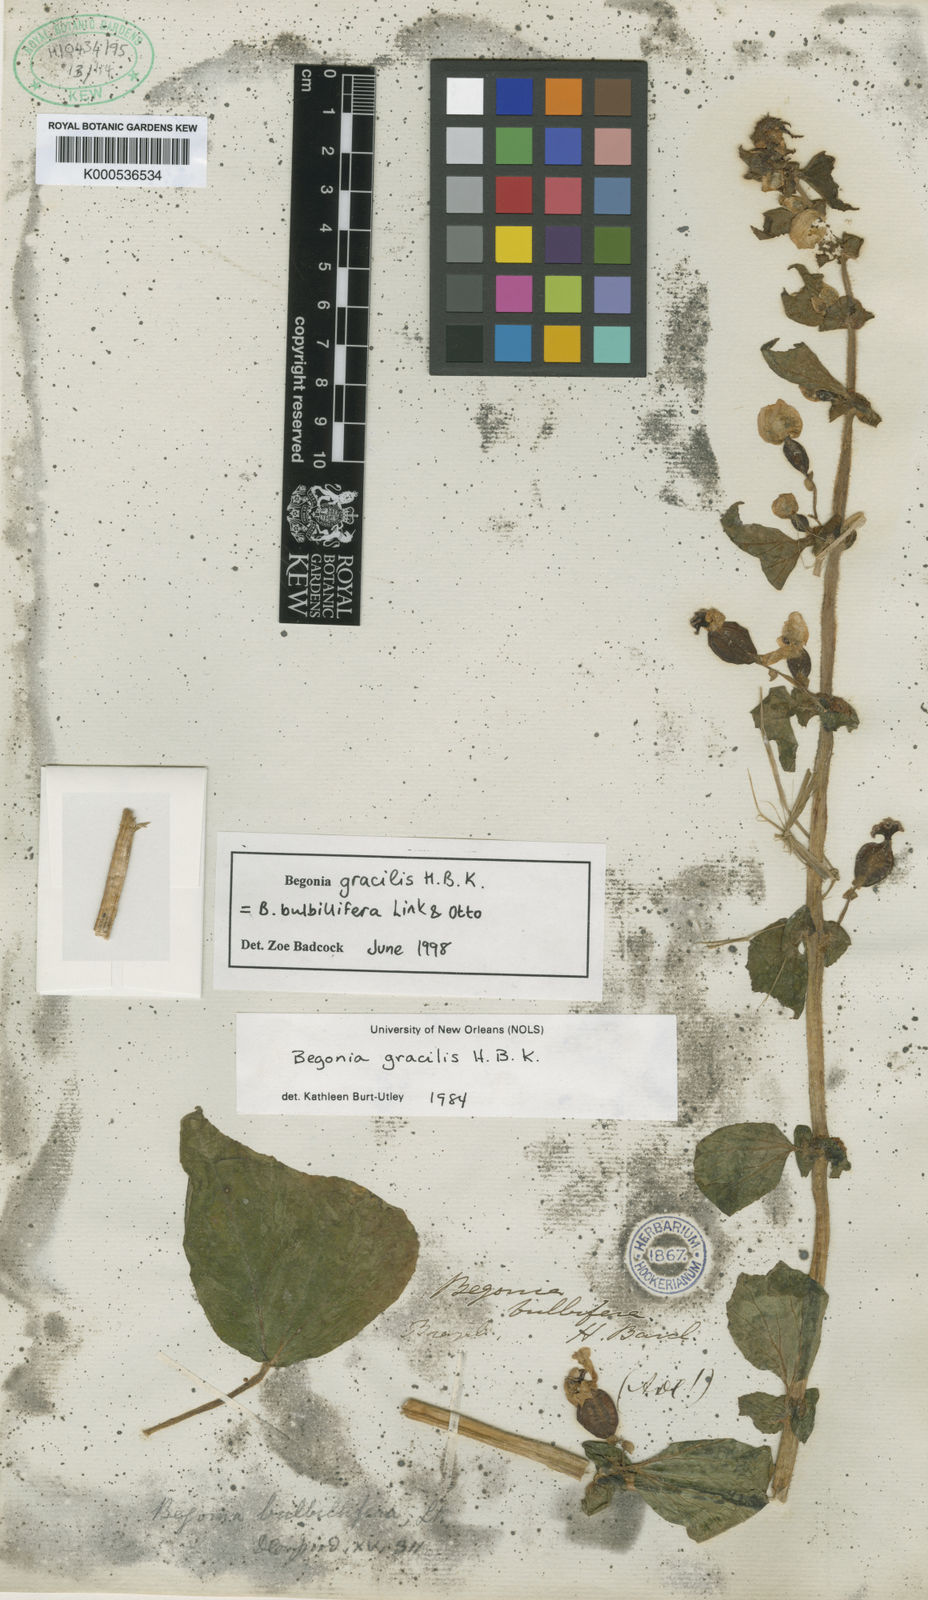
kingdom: Plantae
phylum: Tracheophyta
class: Magnoliopsida
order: Cucurbitales
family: Begoniaceae
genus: Begonia
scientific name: Begonia bulbillifera
